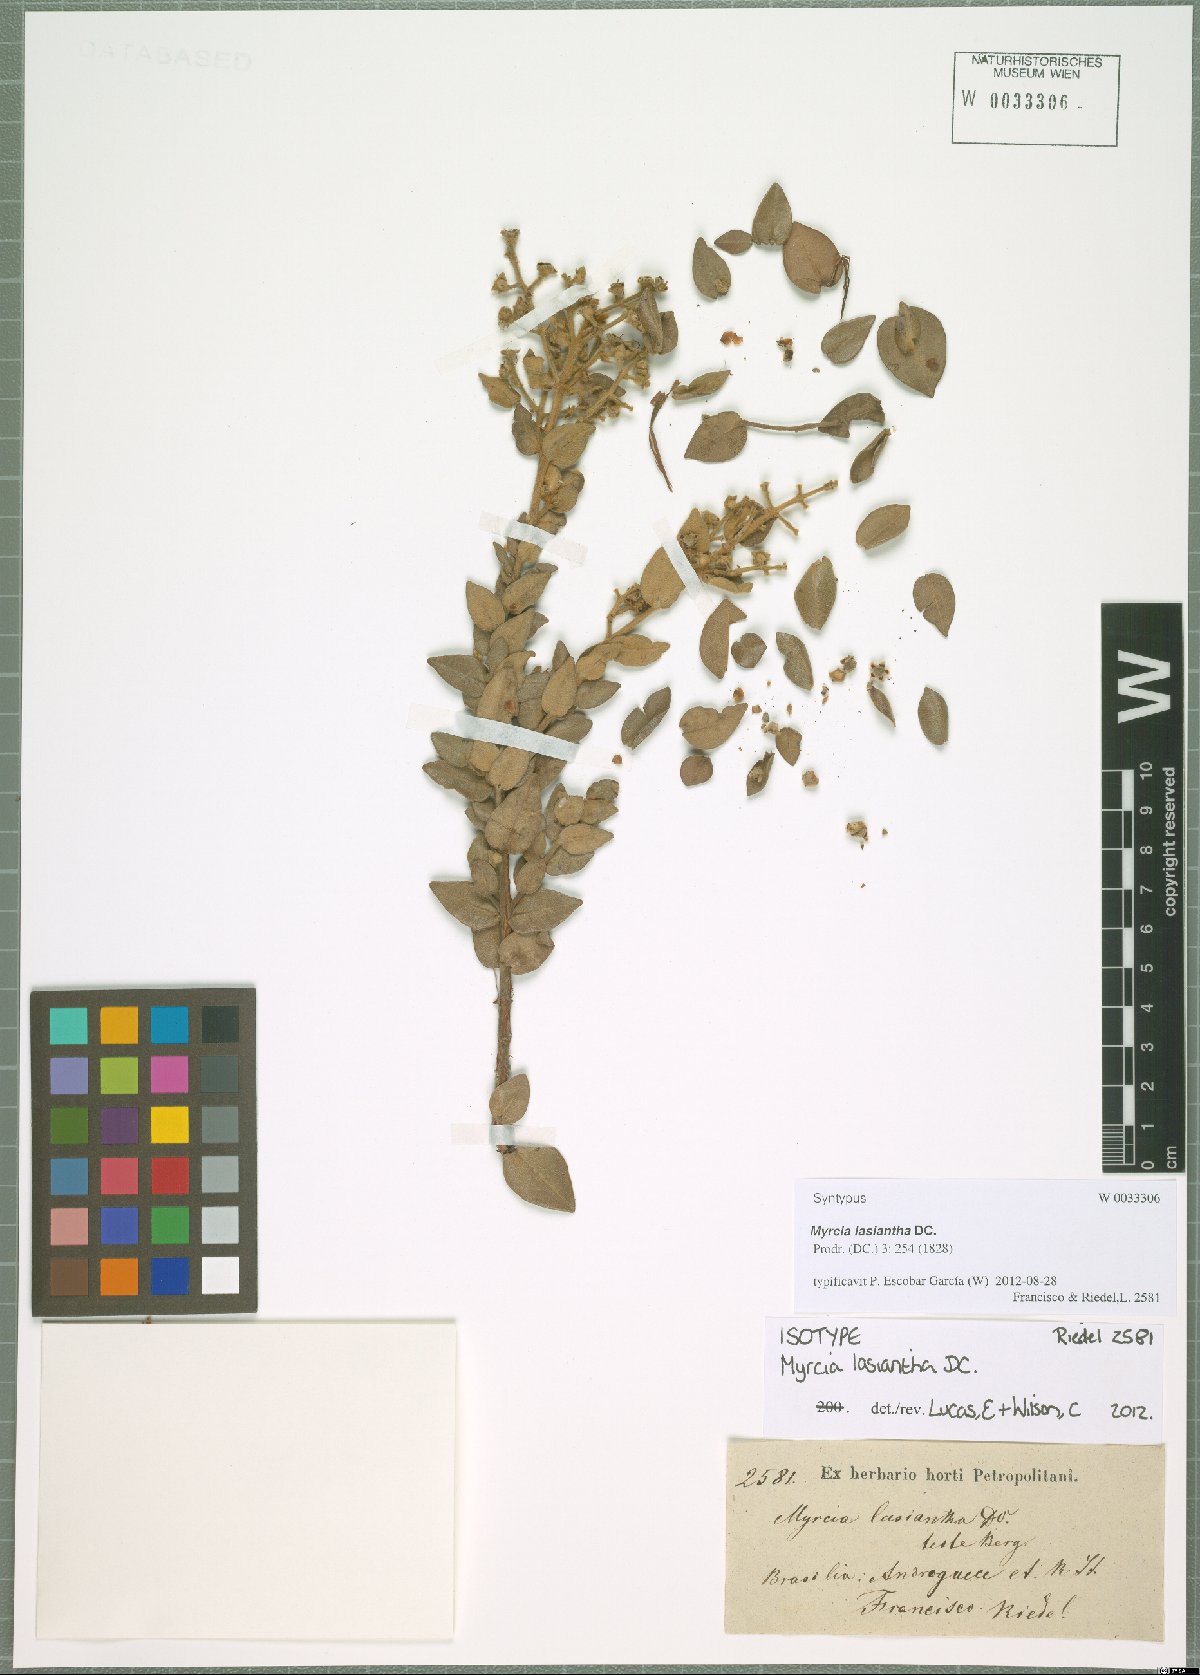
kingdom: Plantae
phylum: Tracheophyta
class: Magnoliopsida
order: Myrtales
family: Myrtaceae
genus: Myrcia
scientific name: Myrcia lasiantha
